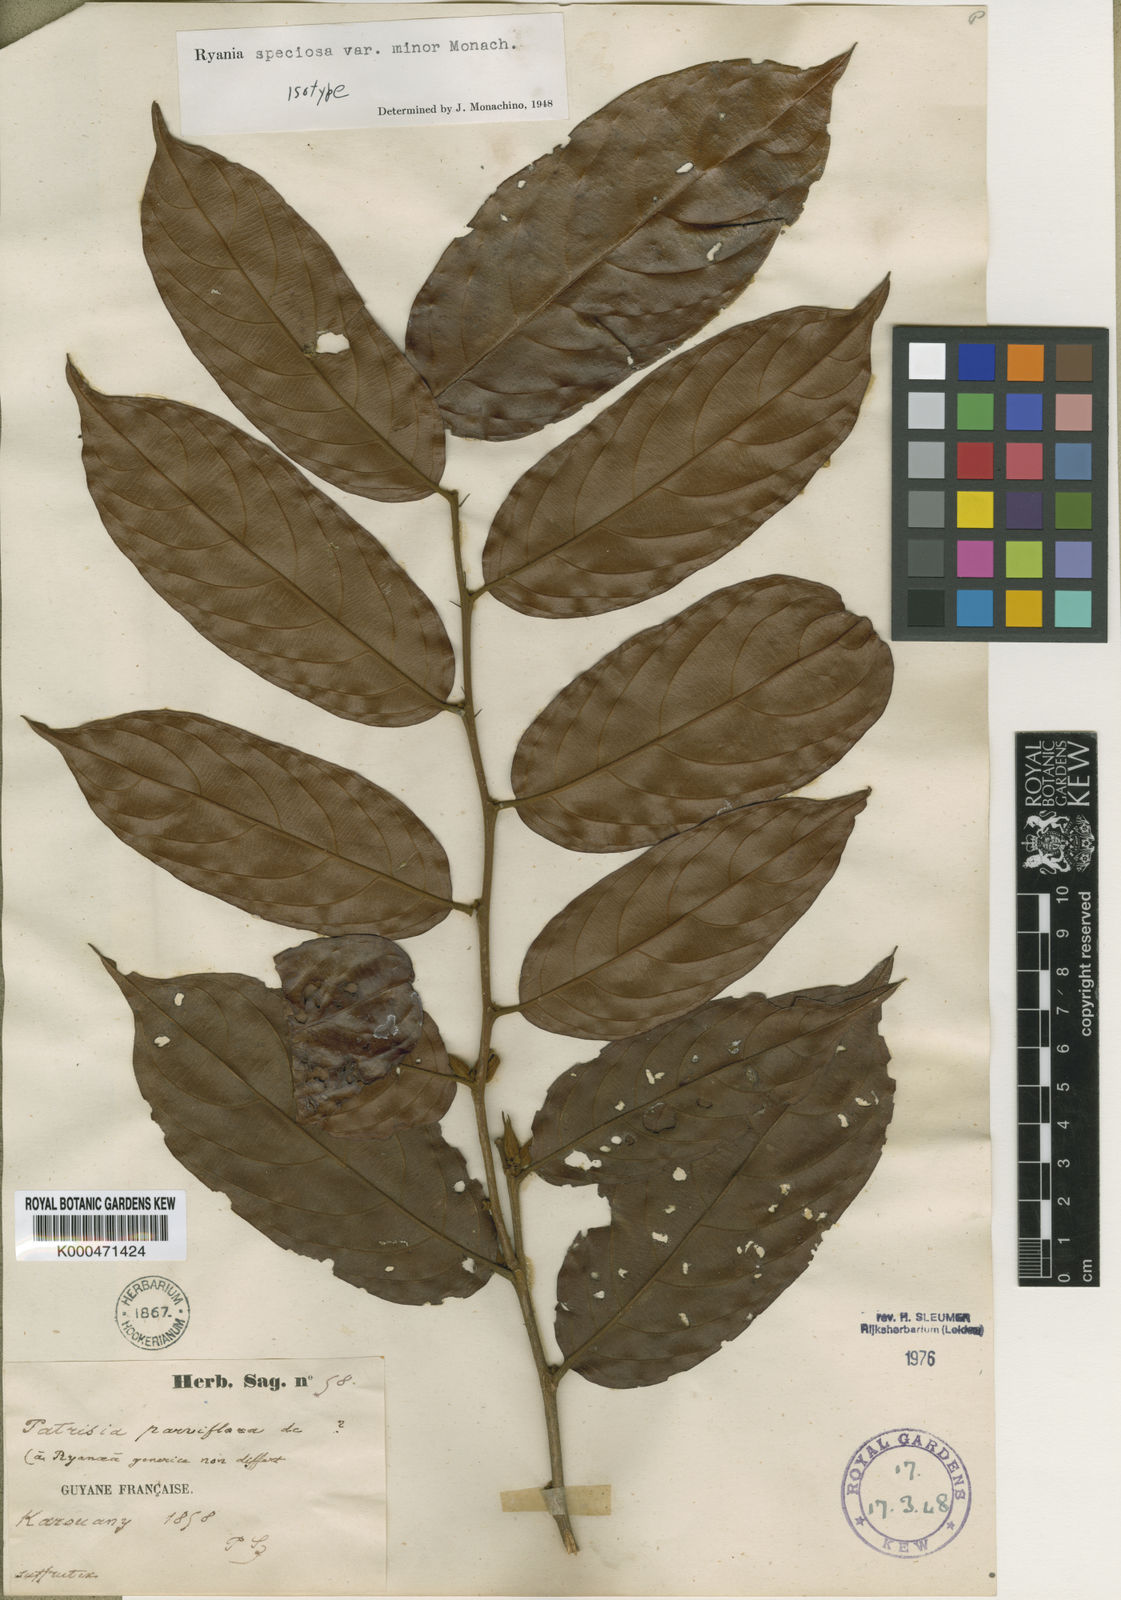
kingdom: Plantae
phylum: Tracheophyta
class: Magnoliopsida
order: Malpighiales
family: Salicaceae
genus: Ryania
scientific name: Ryania speciosa
